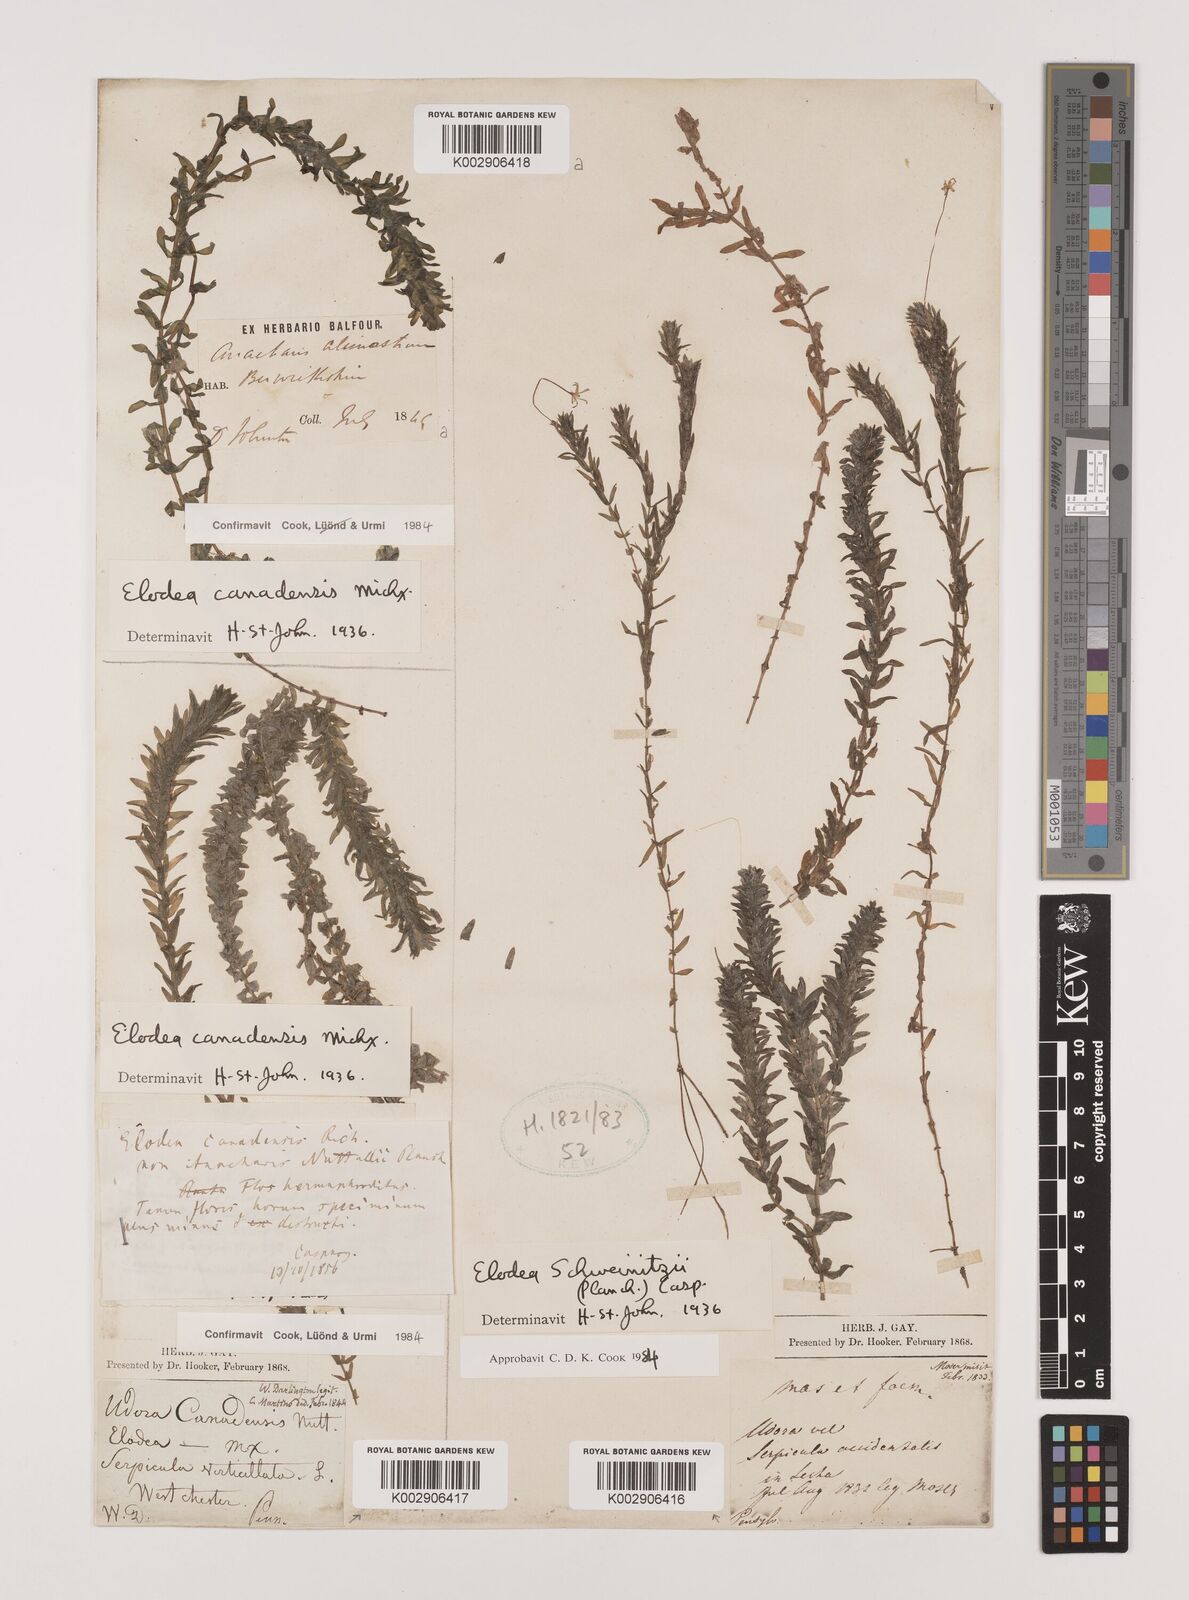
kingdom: Plantae
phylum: Tracheophyta
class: Liliopsida
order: Alismatales
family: Hydrocharitaceae
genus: Elodea
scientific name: Elodea canadensis
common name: Canadian waterweed
